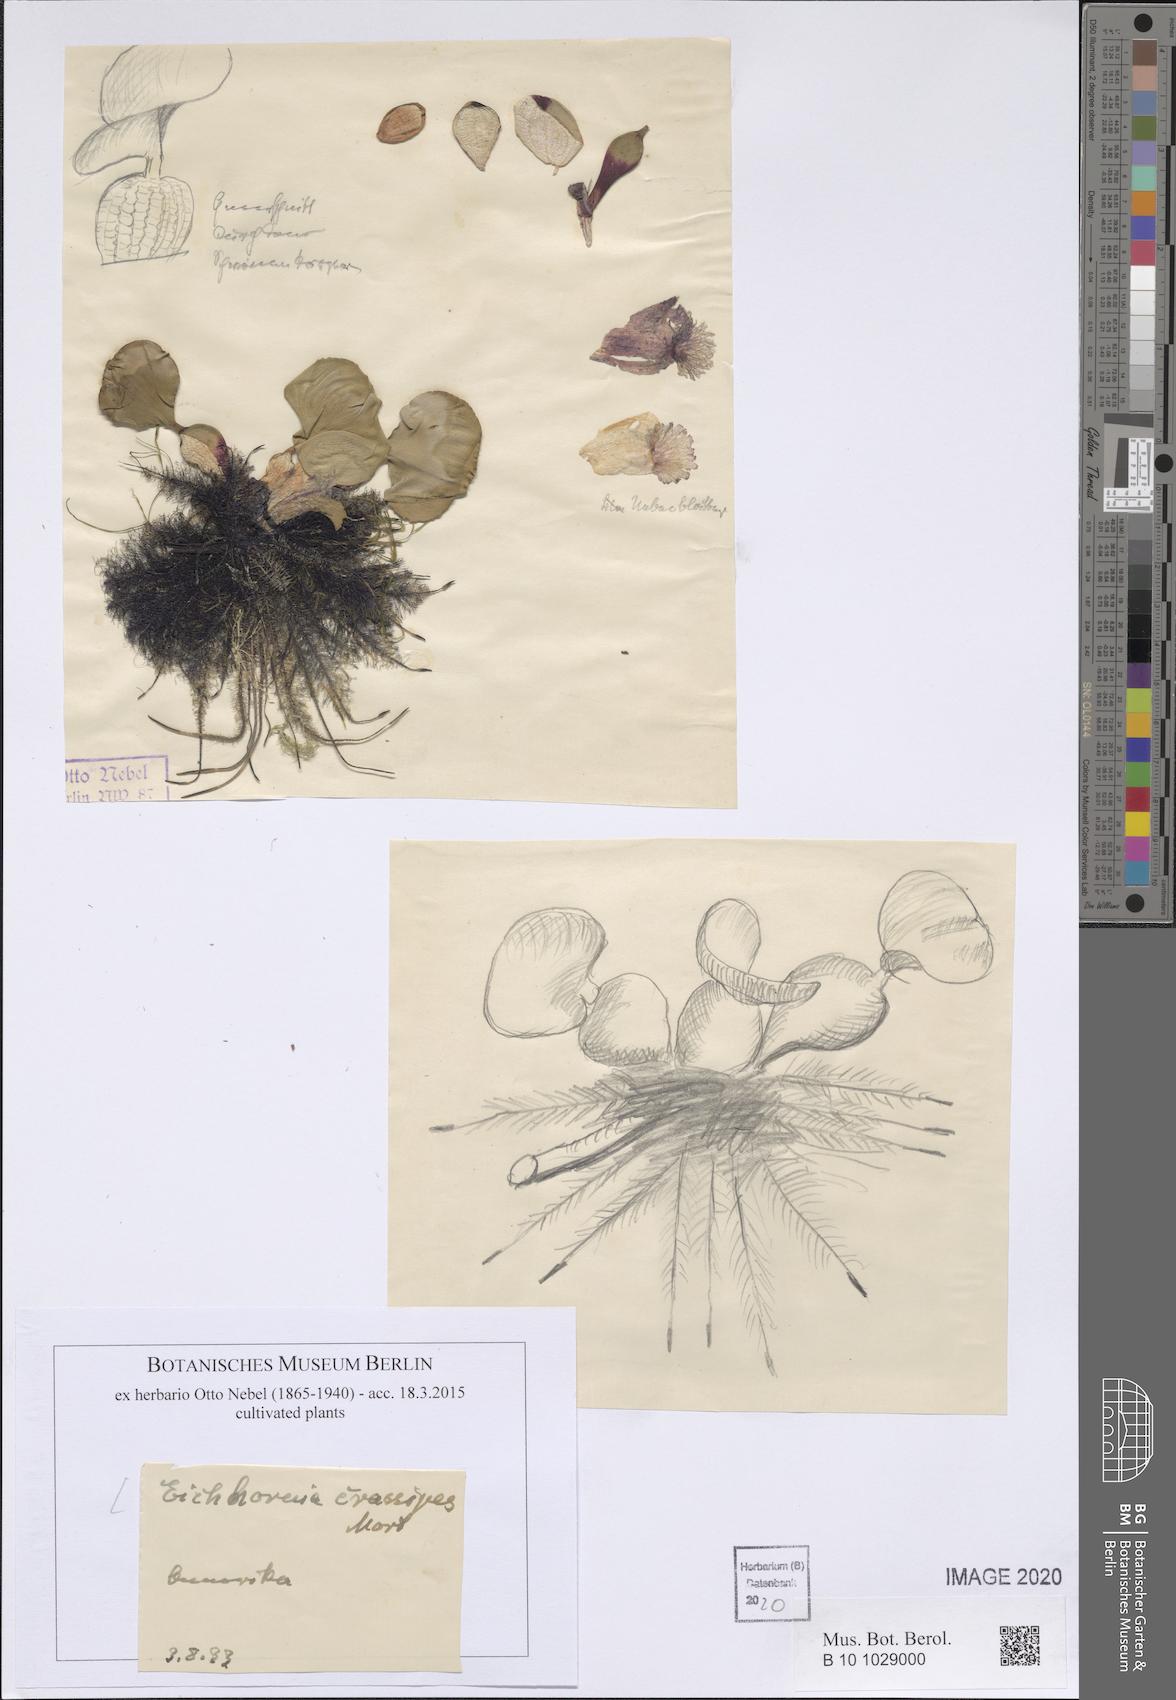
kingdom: Plantae
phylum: Tracheophyta
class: Liliopsida
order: Commelinales
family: Pontederiaceae
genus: Pontederia
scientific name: Pontederia crassipes
